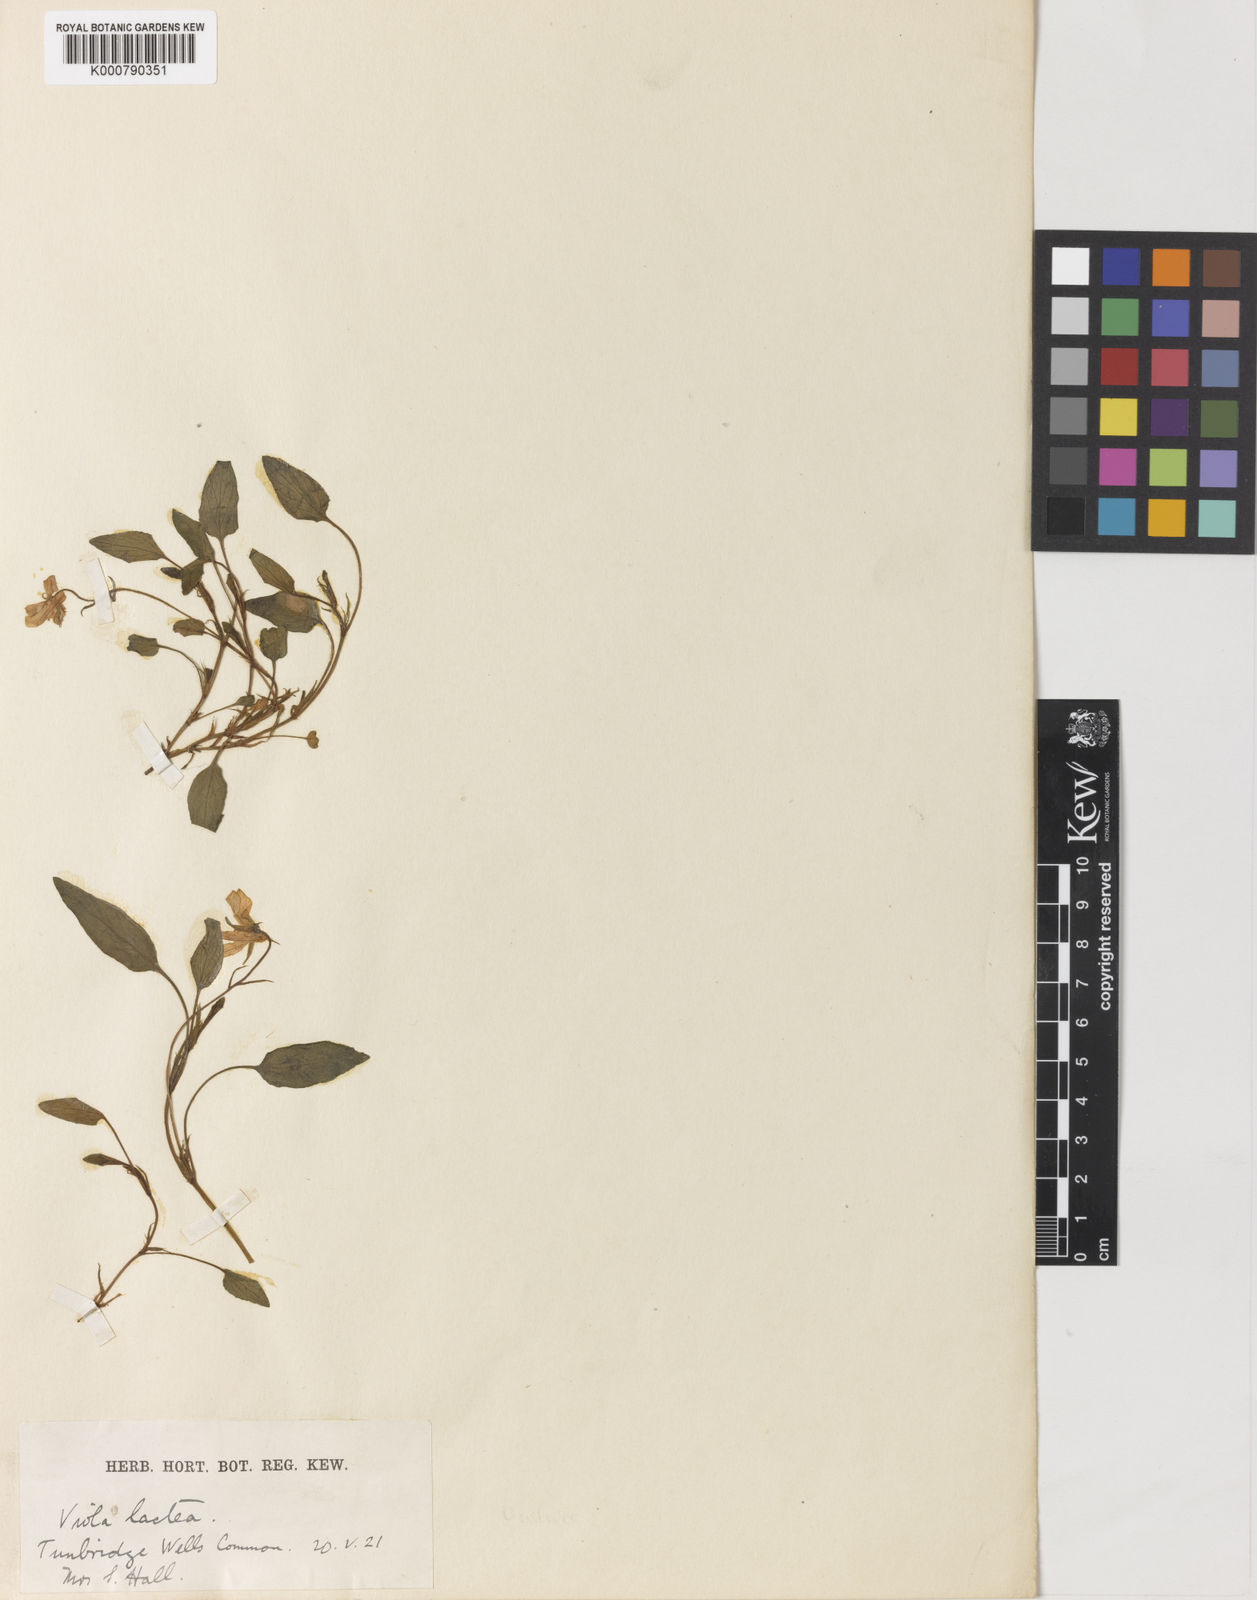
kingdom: Plantae
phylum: Tracheophyta
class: Magnoliopsida
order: Malpighiales
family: Violaceae
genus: Viola
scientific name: Viola lactea
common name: Pale dog-violet
